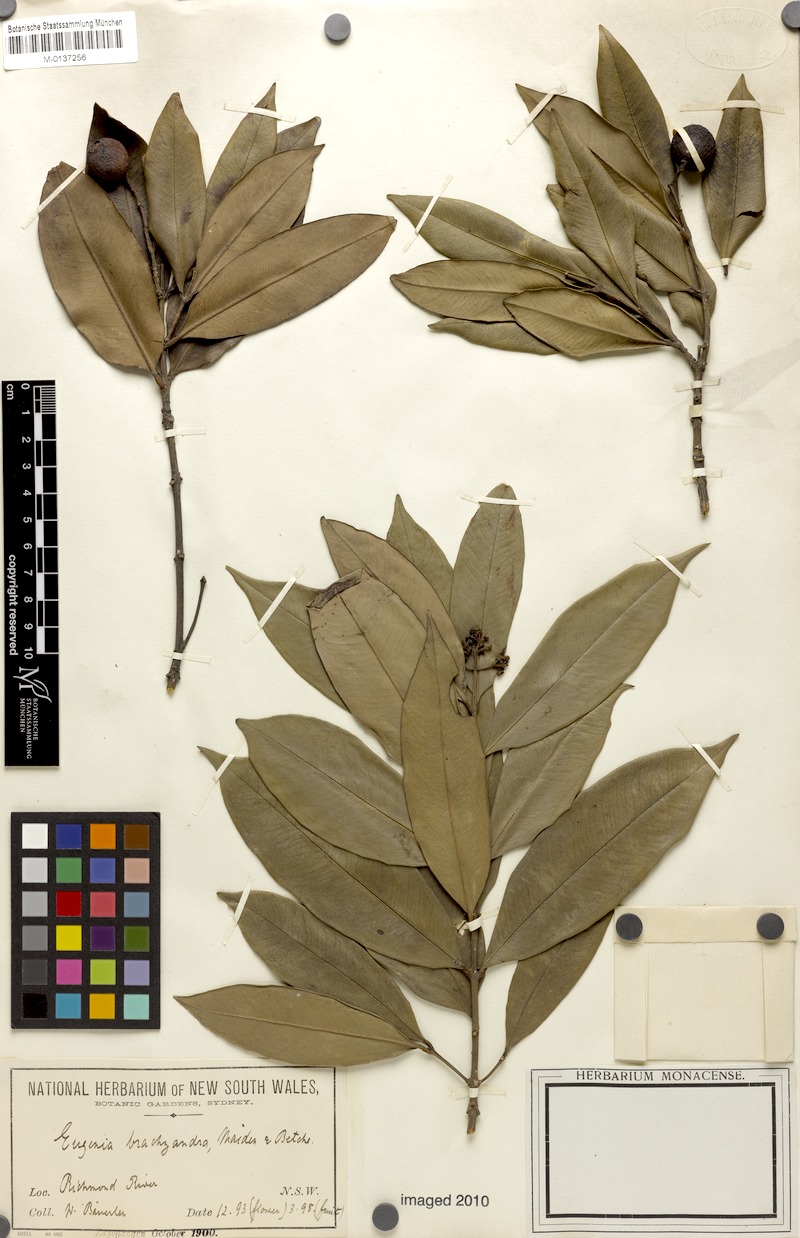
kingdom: Plantae
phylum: Tracheophyta
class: Magnoliopsida
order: Myrtales
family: Myrtaceae
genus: Syzygium
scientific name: Syzygium ingens
